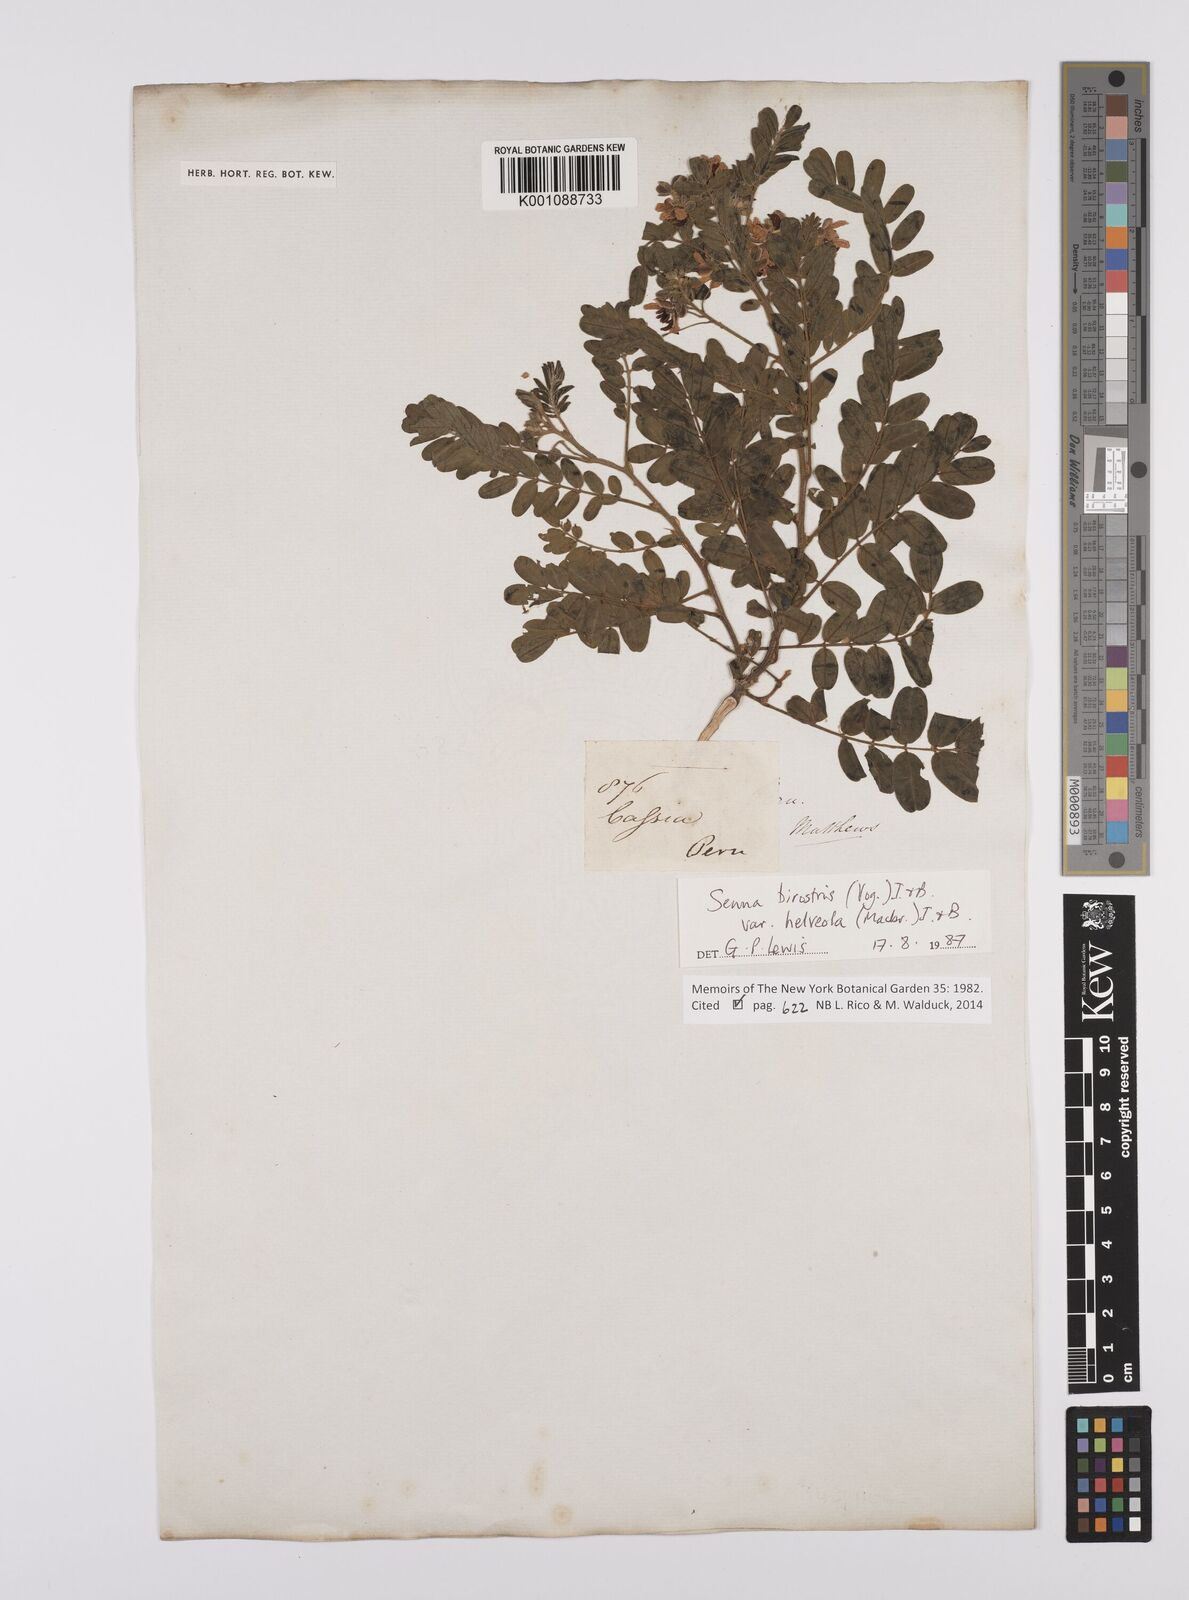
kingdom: Plantae
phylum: Tracheophyta
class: Magnoliopsida
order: Fabales
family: Fabaceae
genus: Senna
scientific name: Senna birostris
